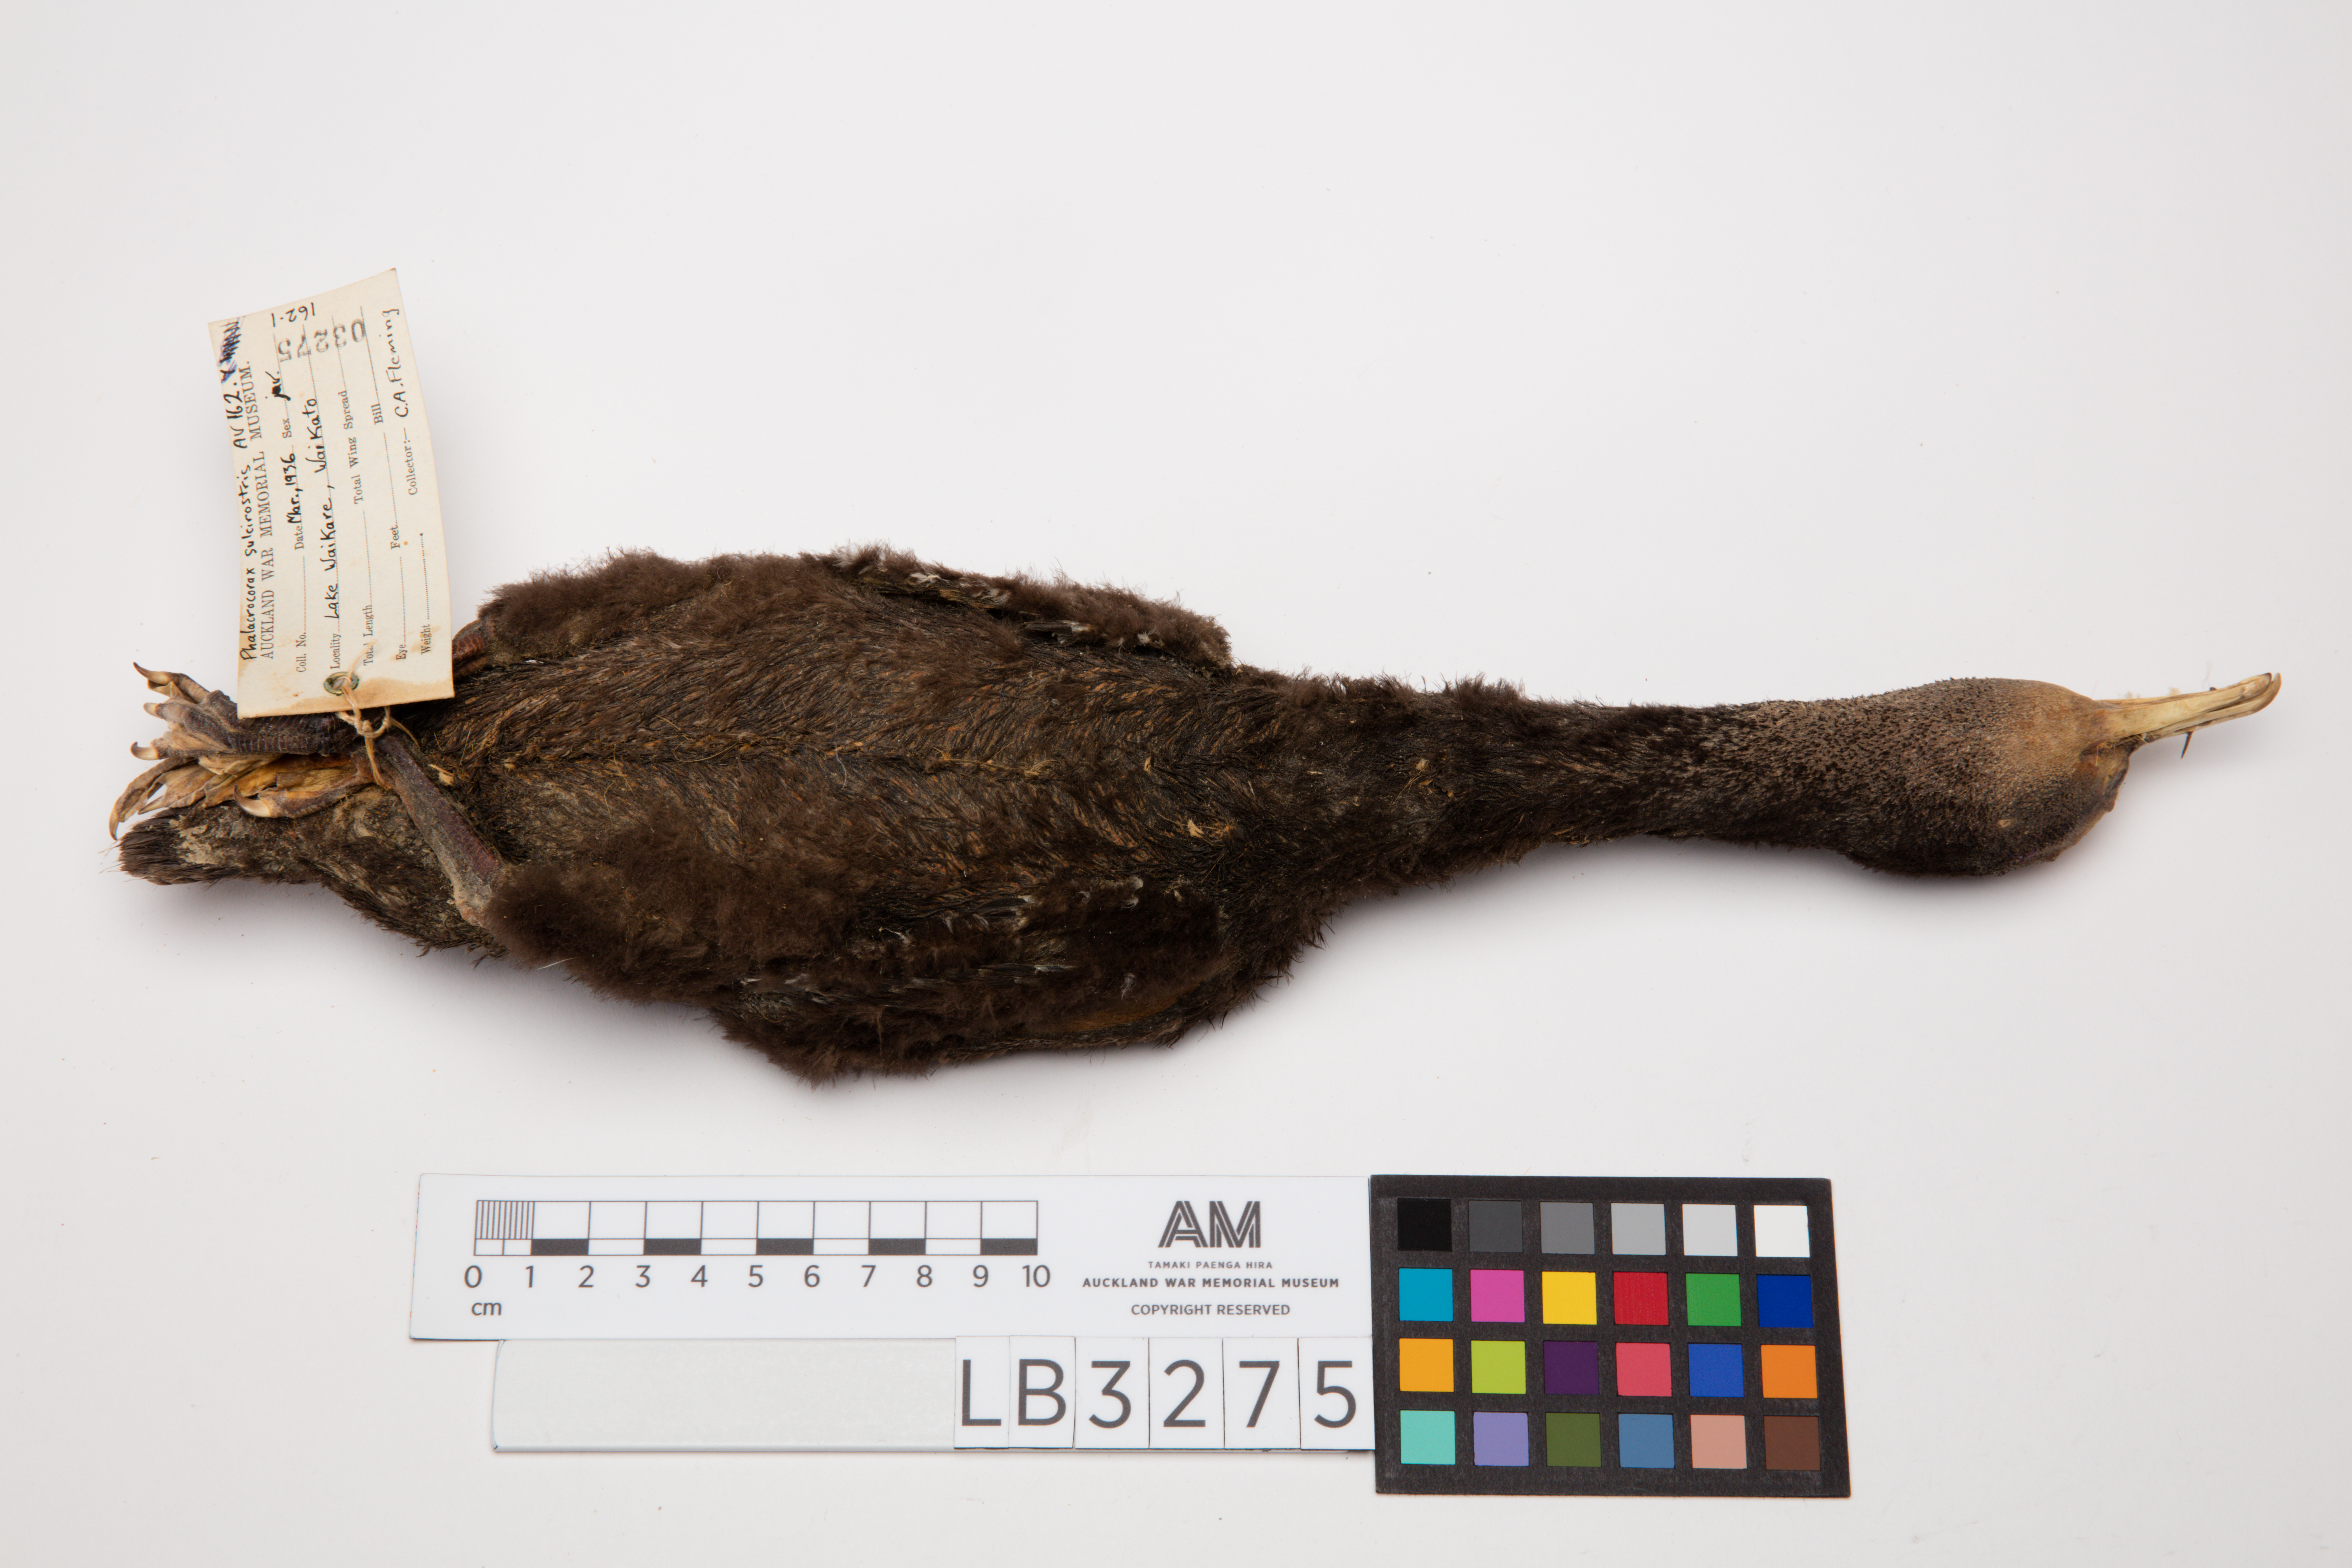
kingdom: Animalia
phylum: Chordata
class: Aves
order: Suliformes
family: Phalacrocoracidae
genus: Phalacrocorax
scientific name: Phalacrocorax sulcirostris
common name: Little black cormorant
